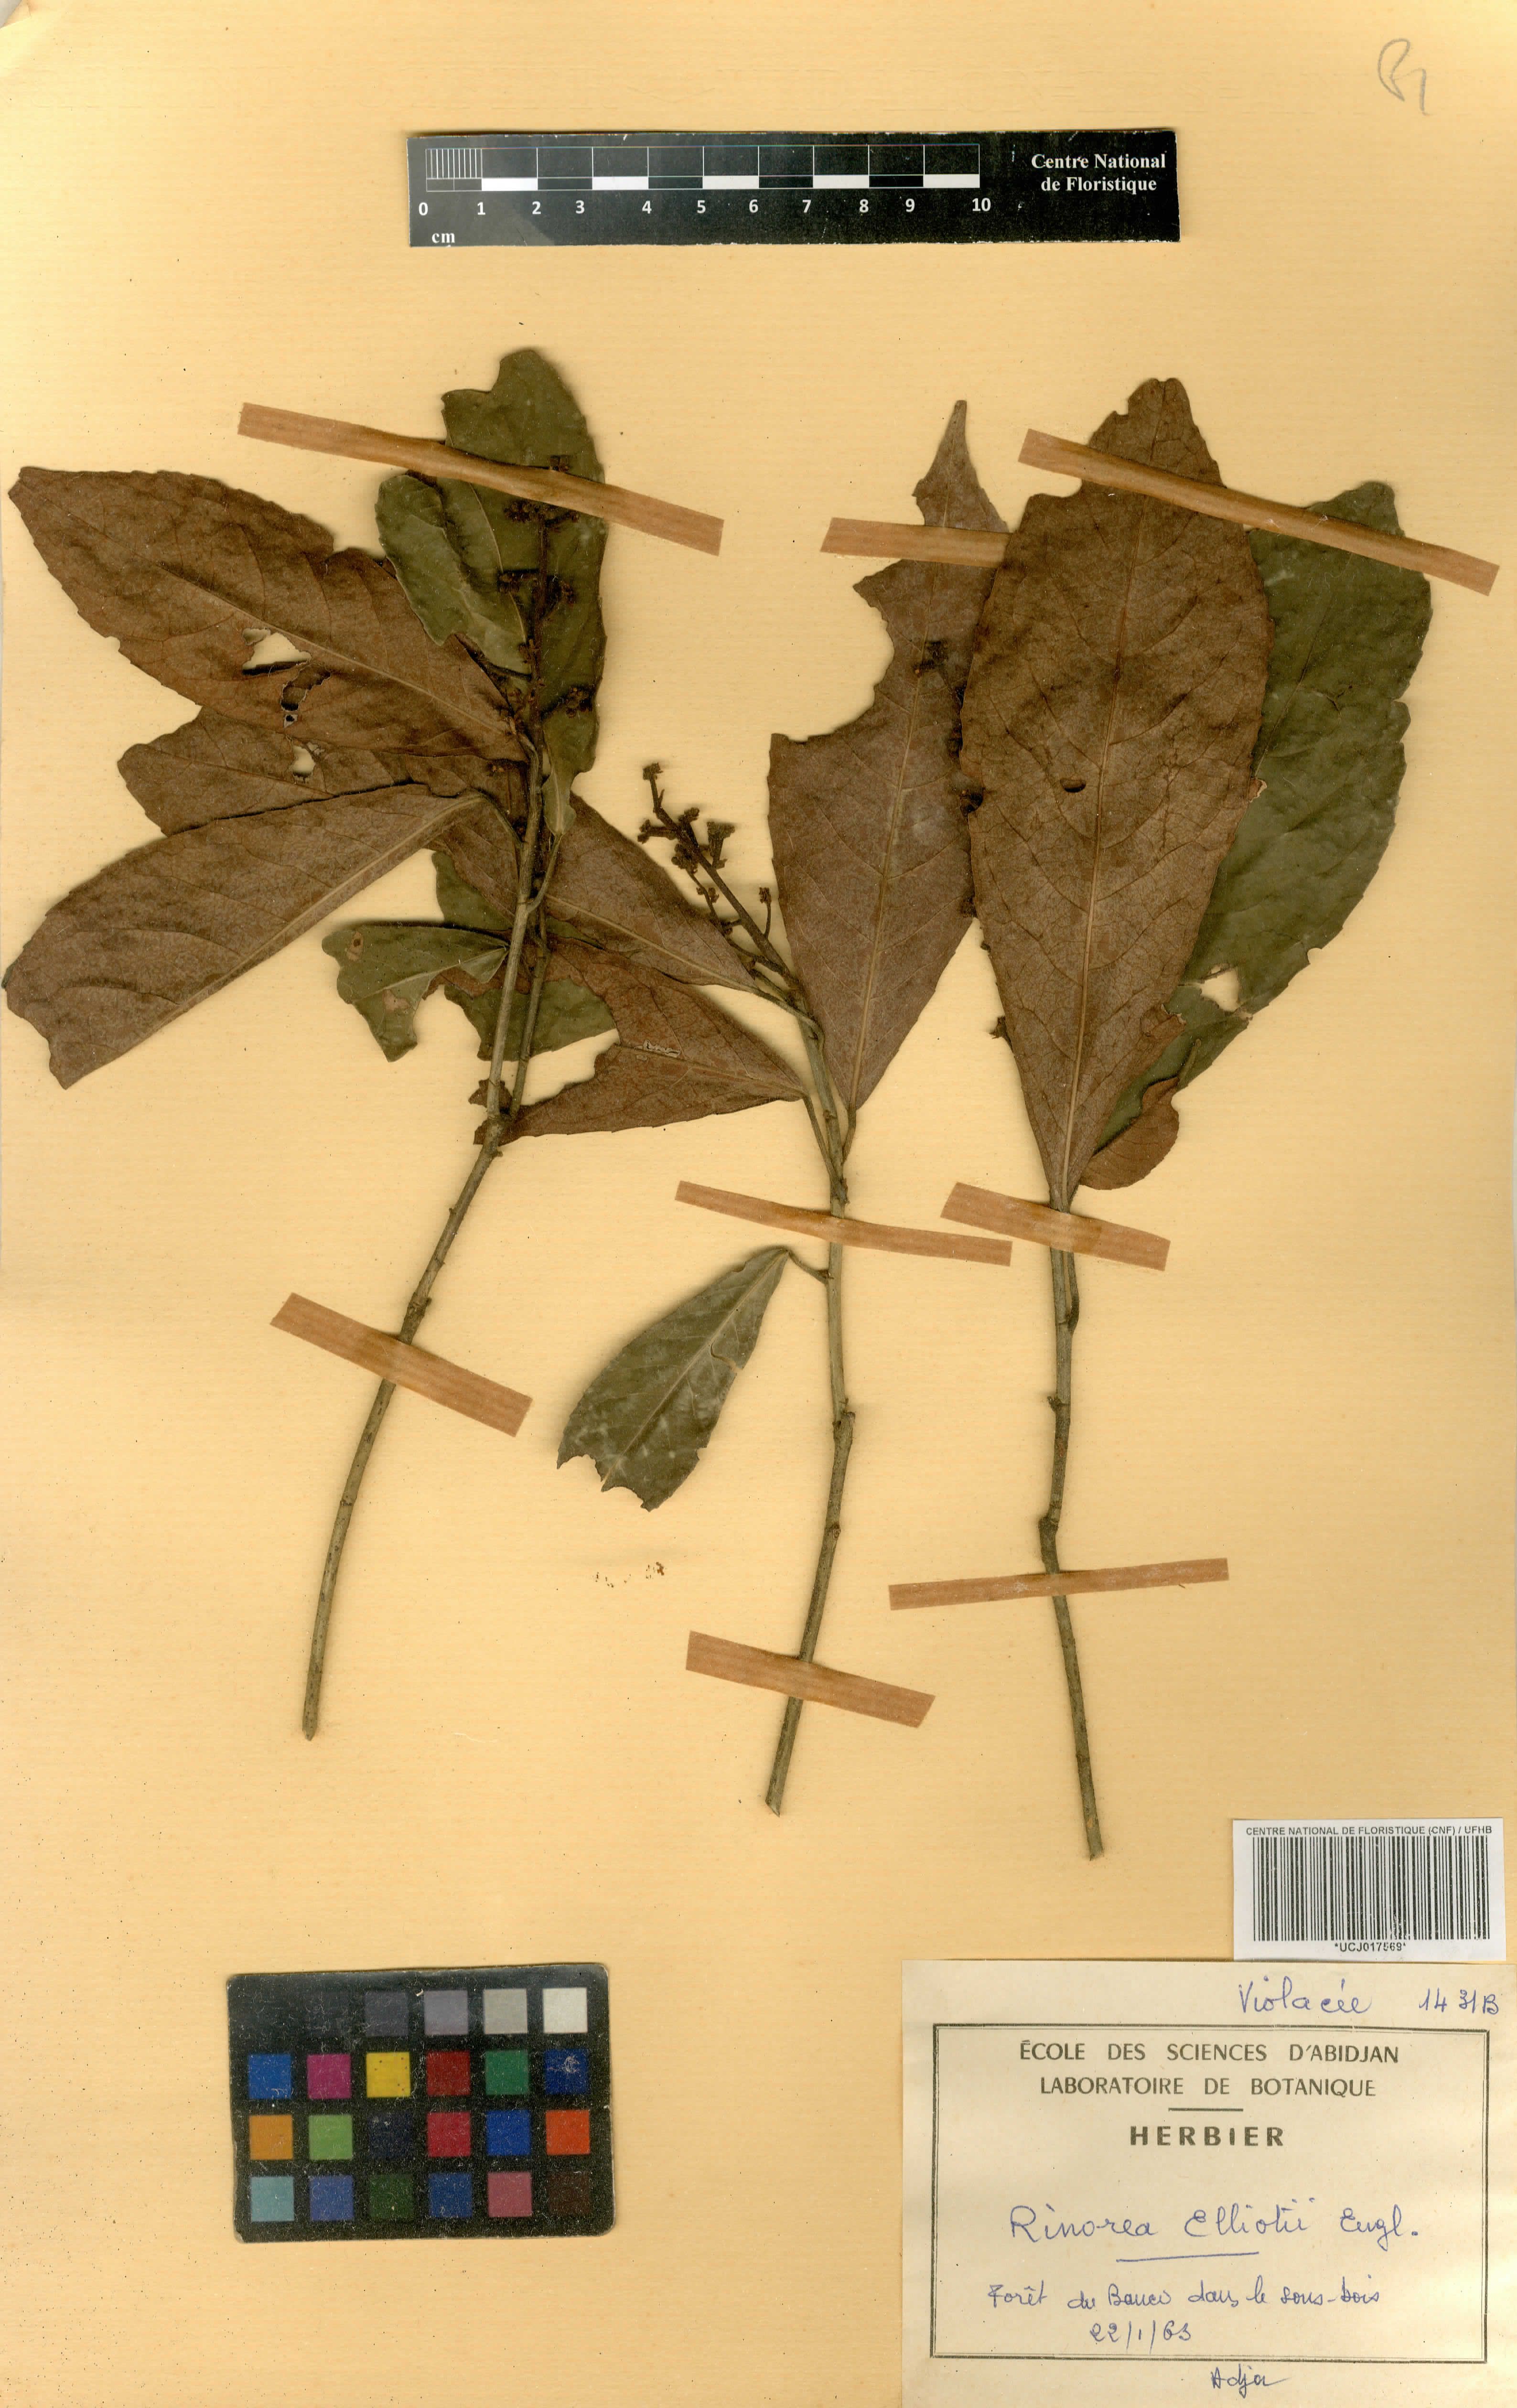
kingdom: Plantae
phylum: Tracheophyta
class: Magnoliopsida
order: Malpighiales
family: Violaceae
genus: Rinorea
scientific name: Rinorea welwitschii
